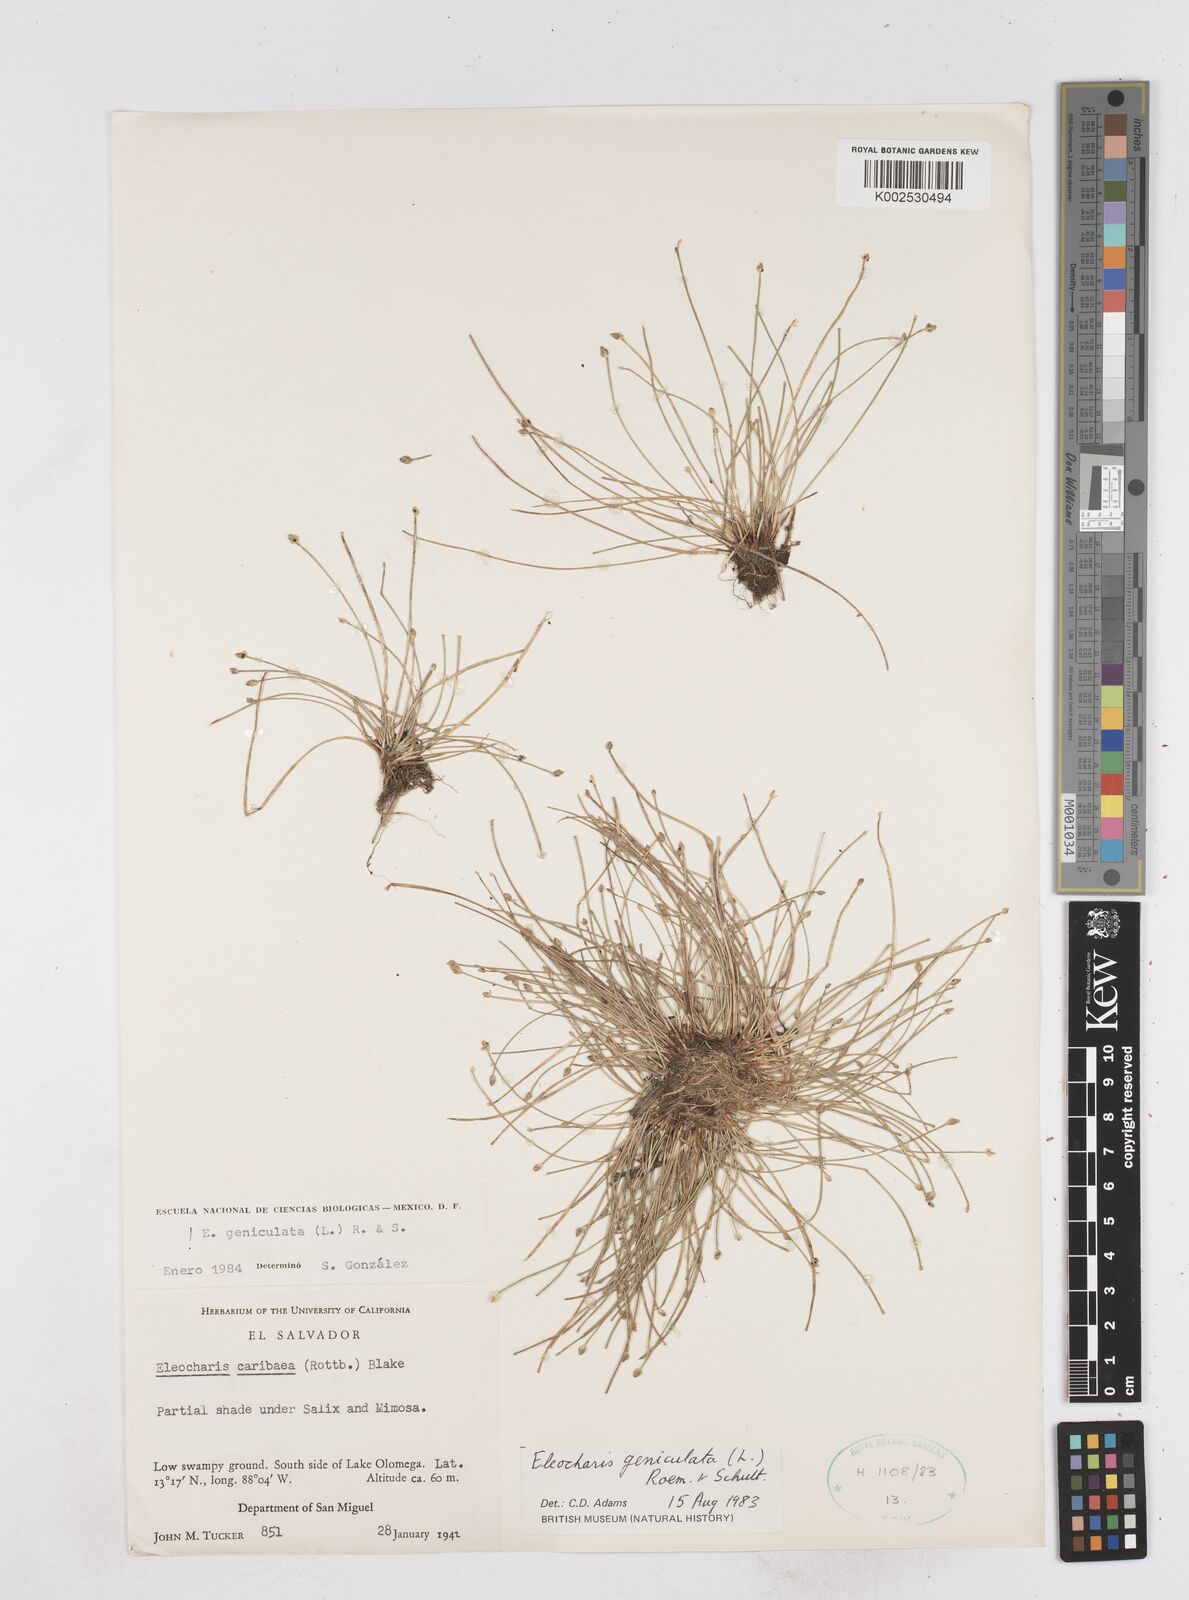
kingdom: Plantae
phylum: Tracheophyta
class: Liliopsida
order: Poales
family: Cyperaceae
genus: Eleocharis
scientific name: Eleocharis geniculata
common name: Canada spikesedge
